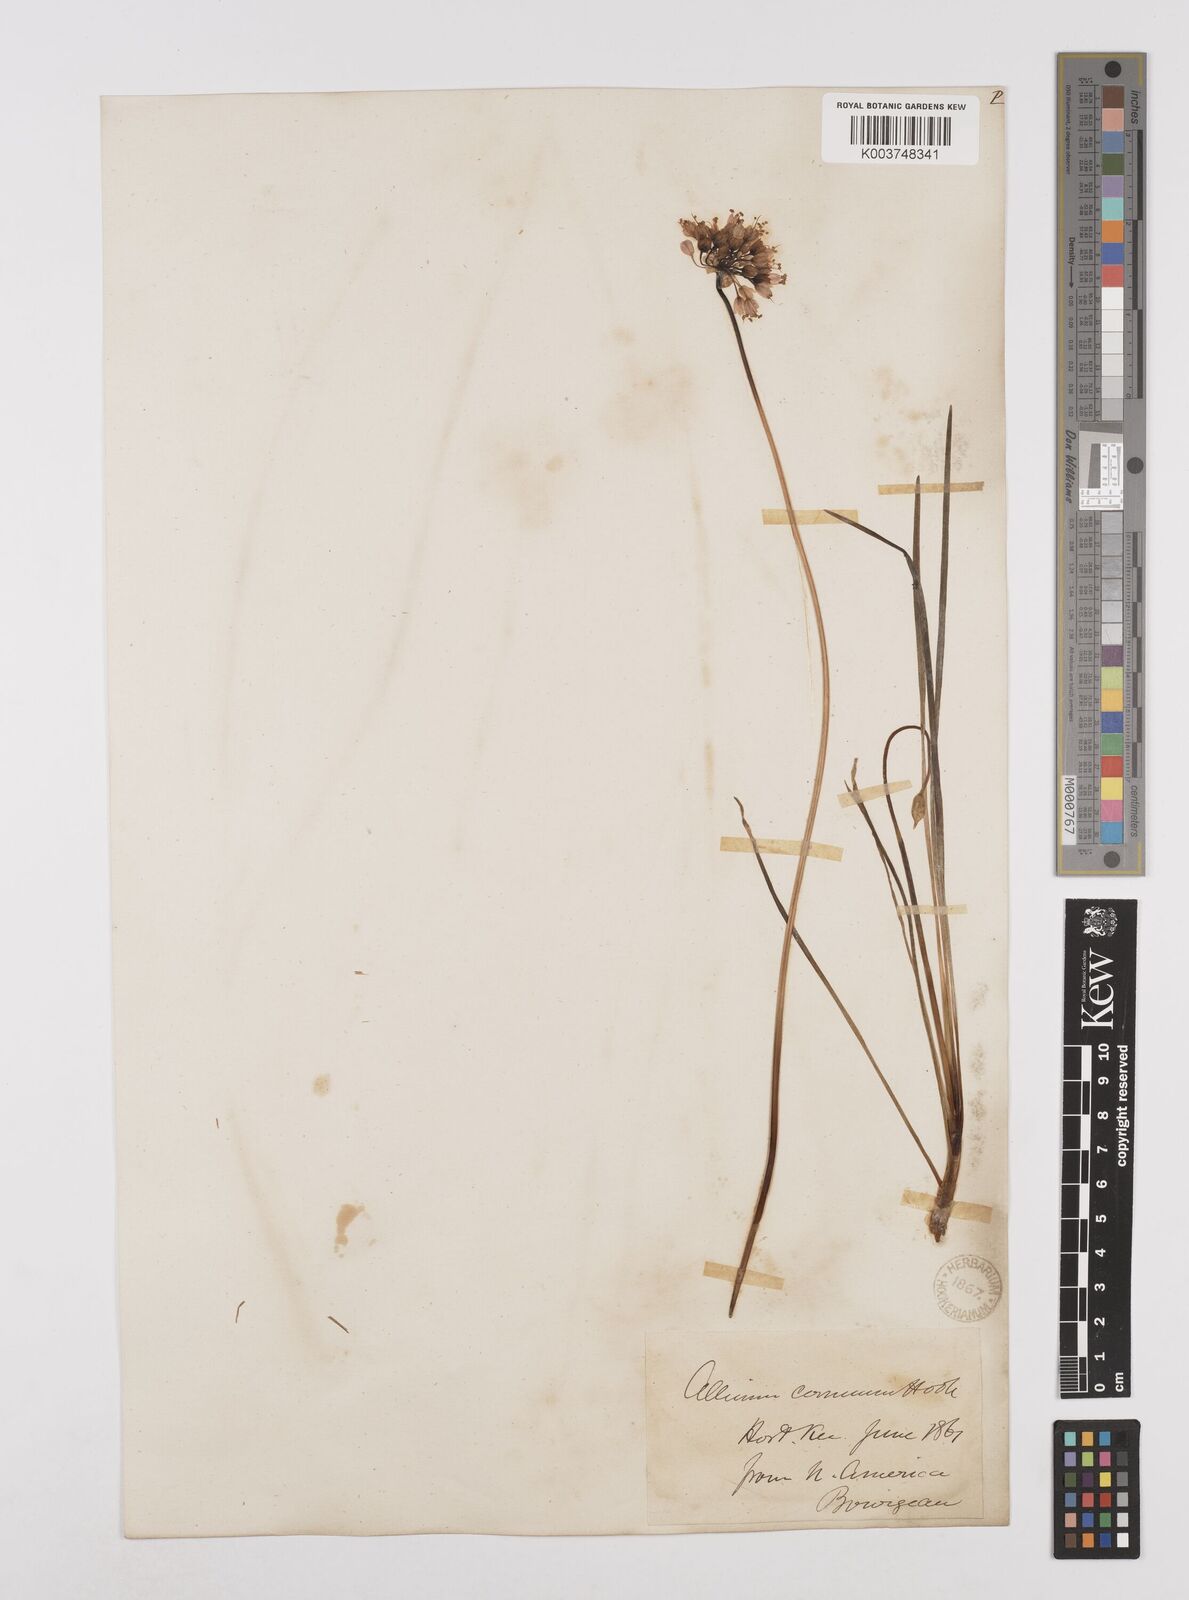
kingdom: Plantae
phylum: Tracheophyta
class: Liliopsida
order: Asparagales
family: Amaryllidaceae
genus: Allium
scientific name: Allium cernuum
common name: Nodding onion
